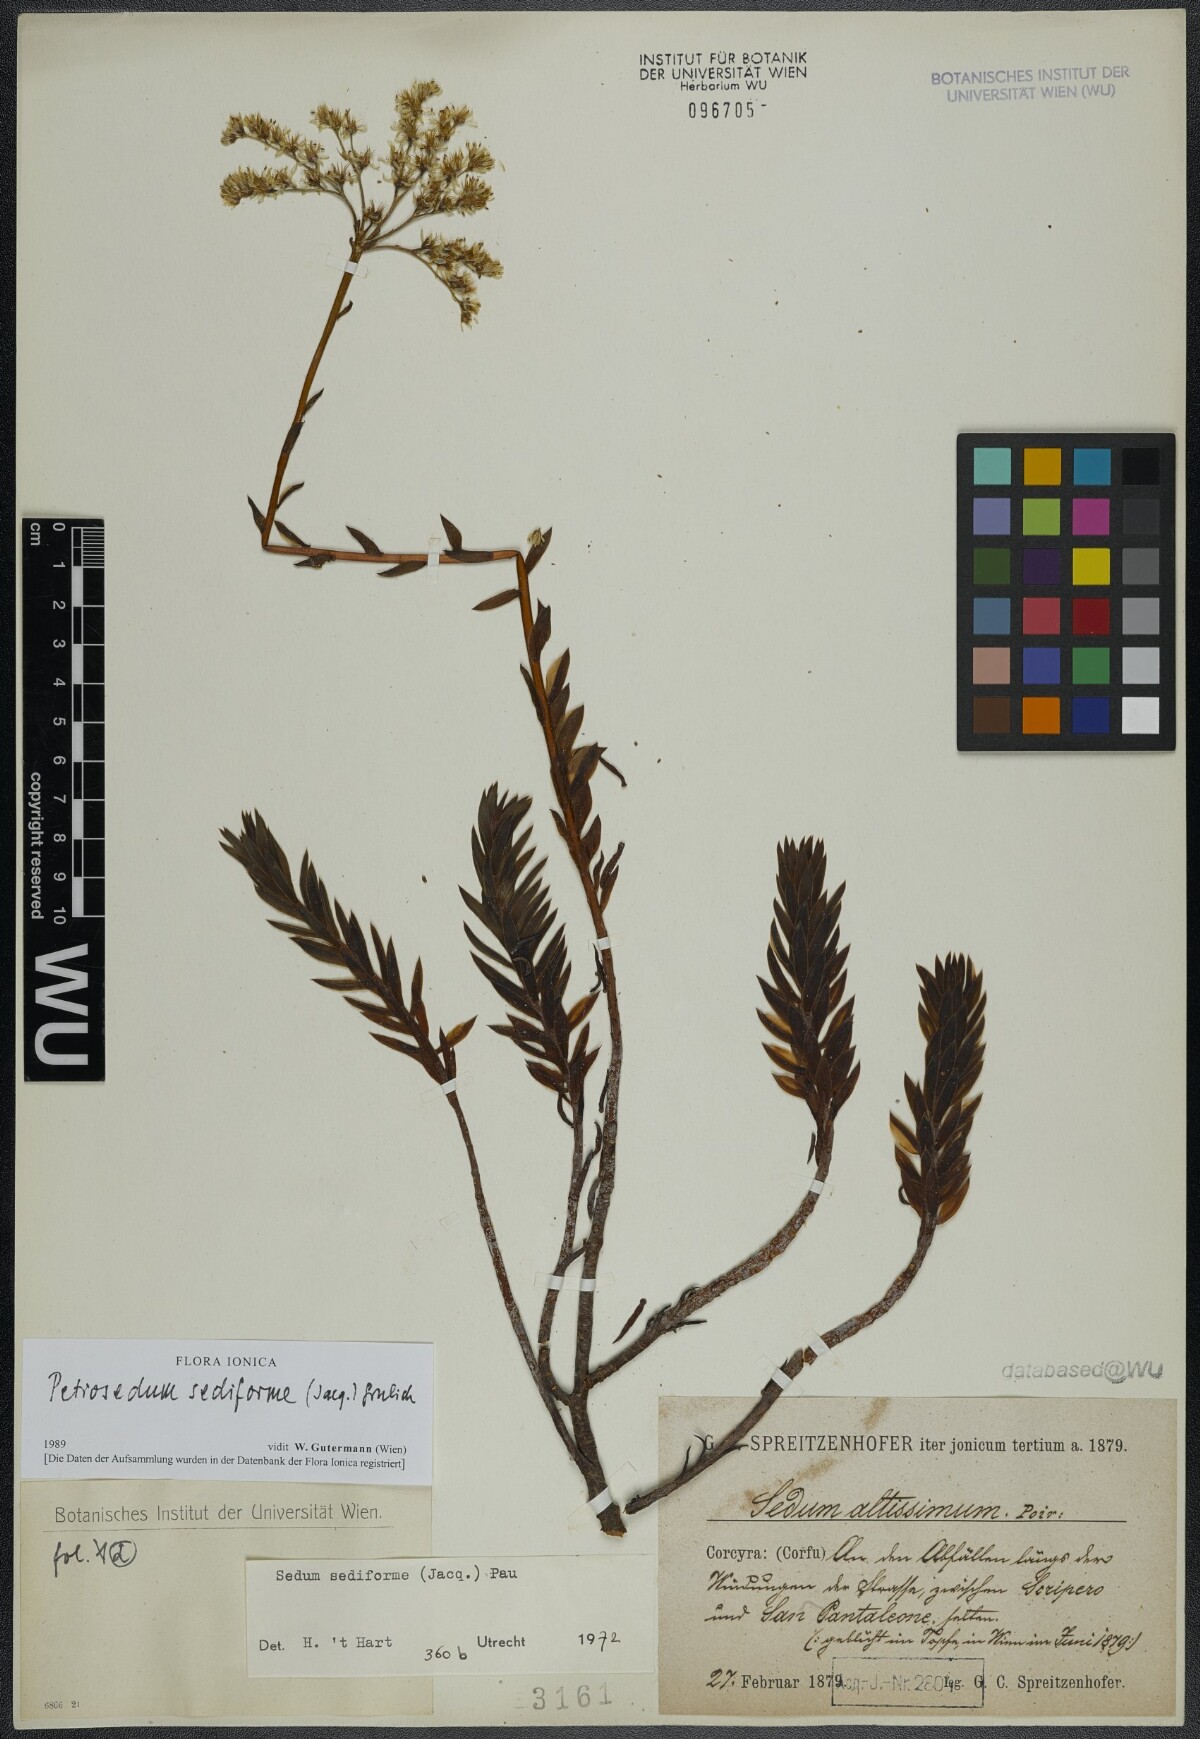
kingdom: Plantae
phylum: Tracheophyta
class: Magnoliopsida
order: Saxifragales
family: Crassulaceae
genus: Petrosedum
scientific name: Petrosedum sediforme
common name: Pale stonecrop
